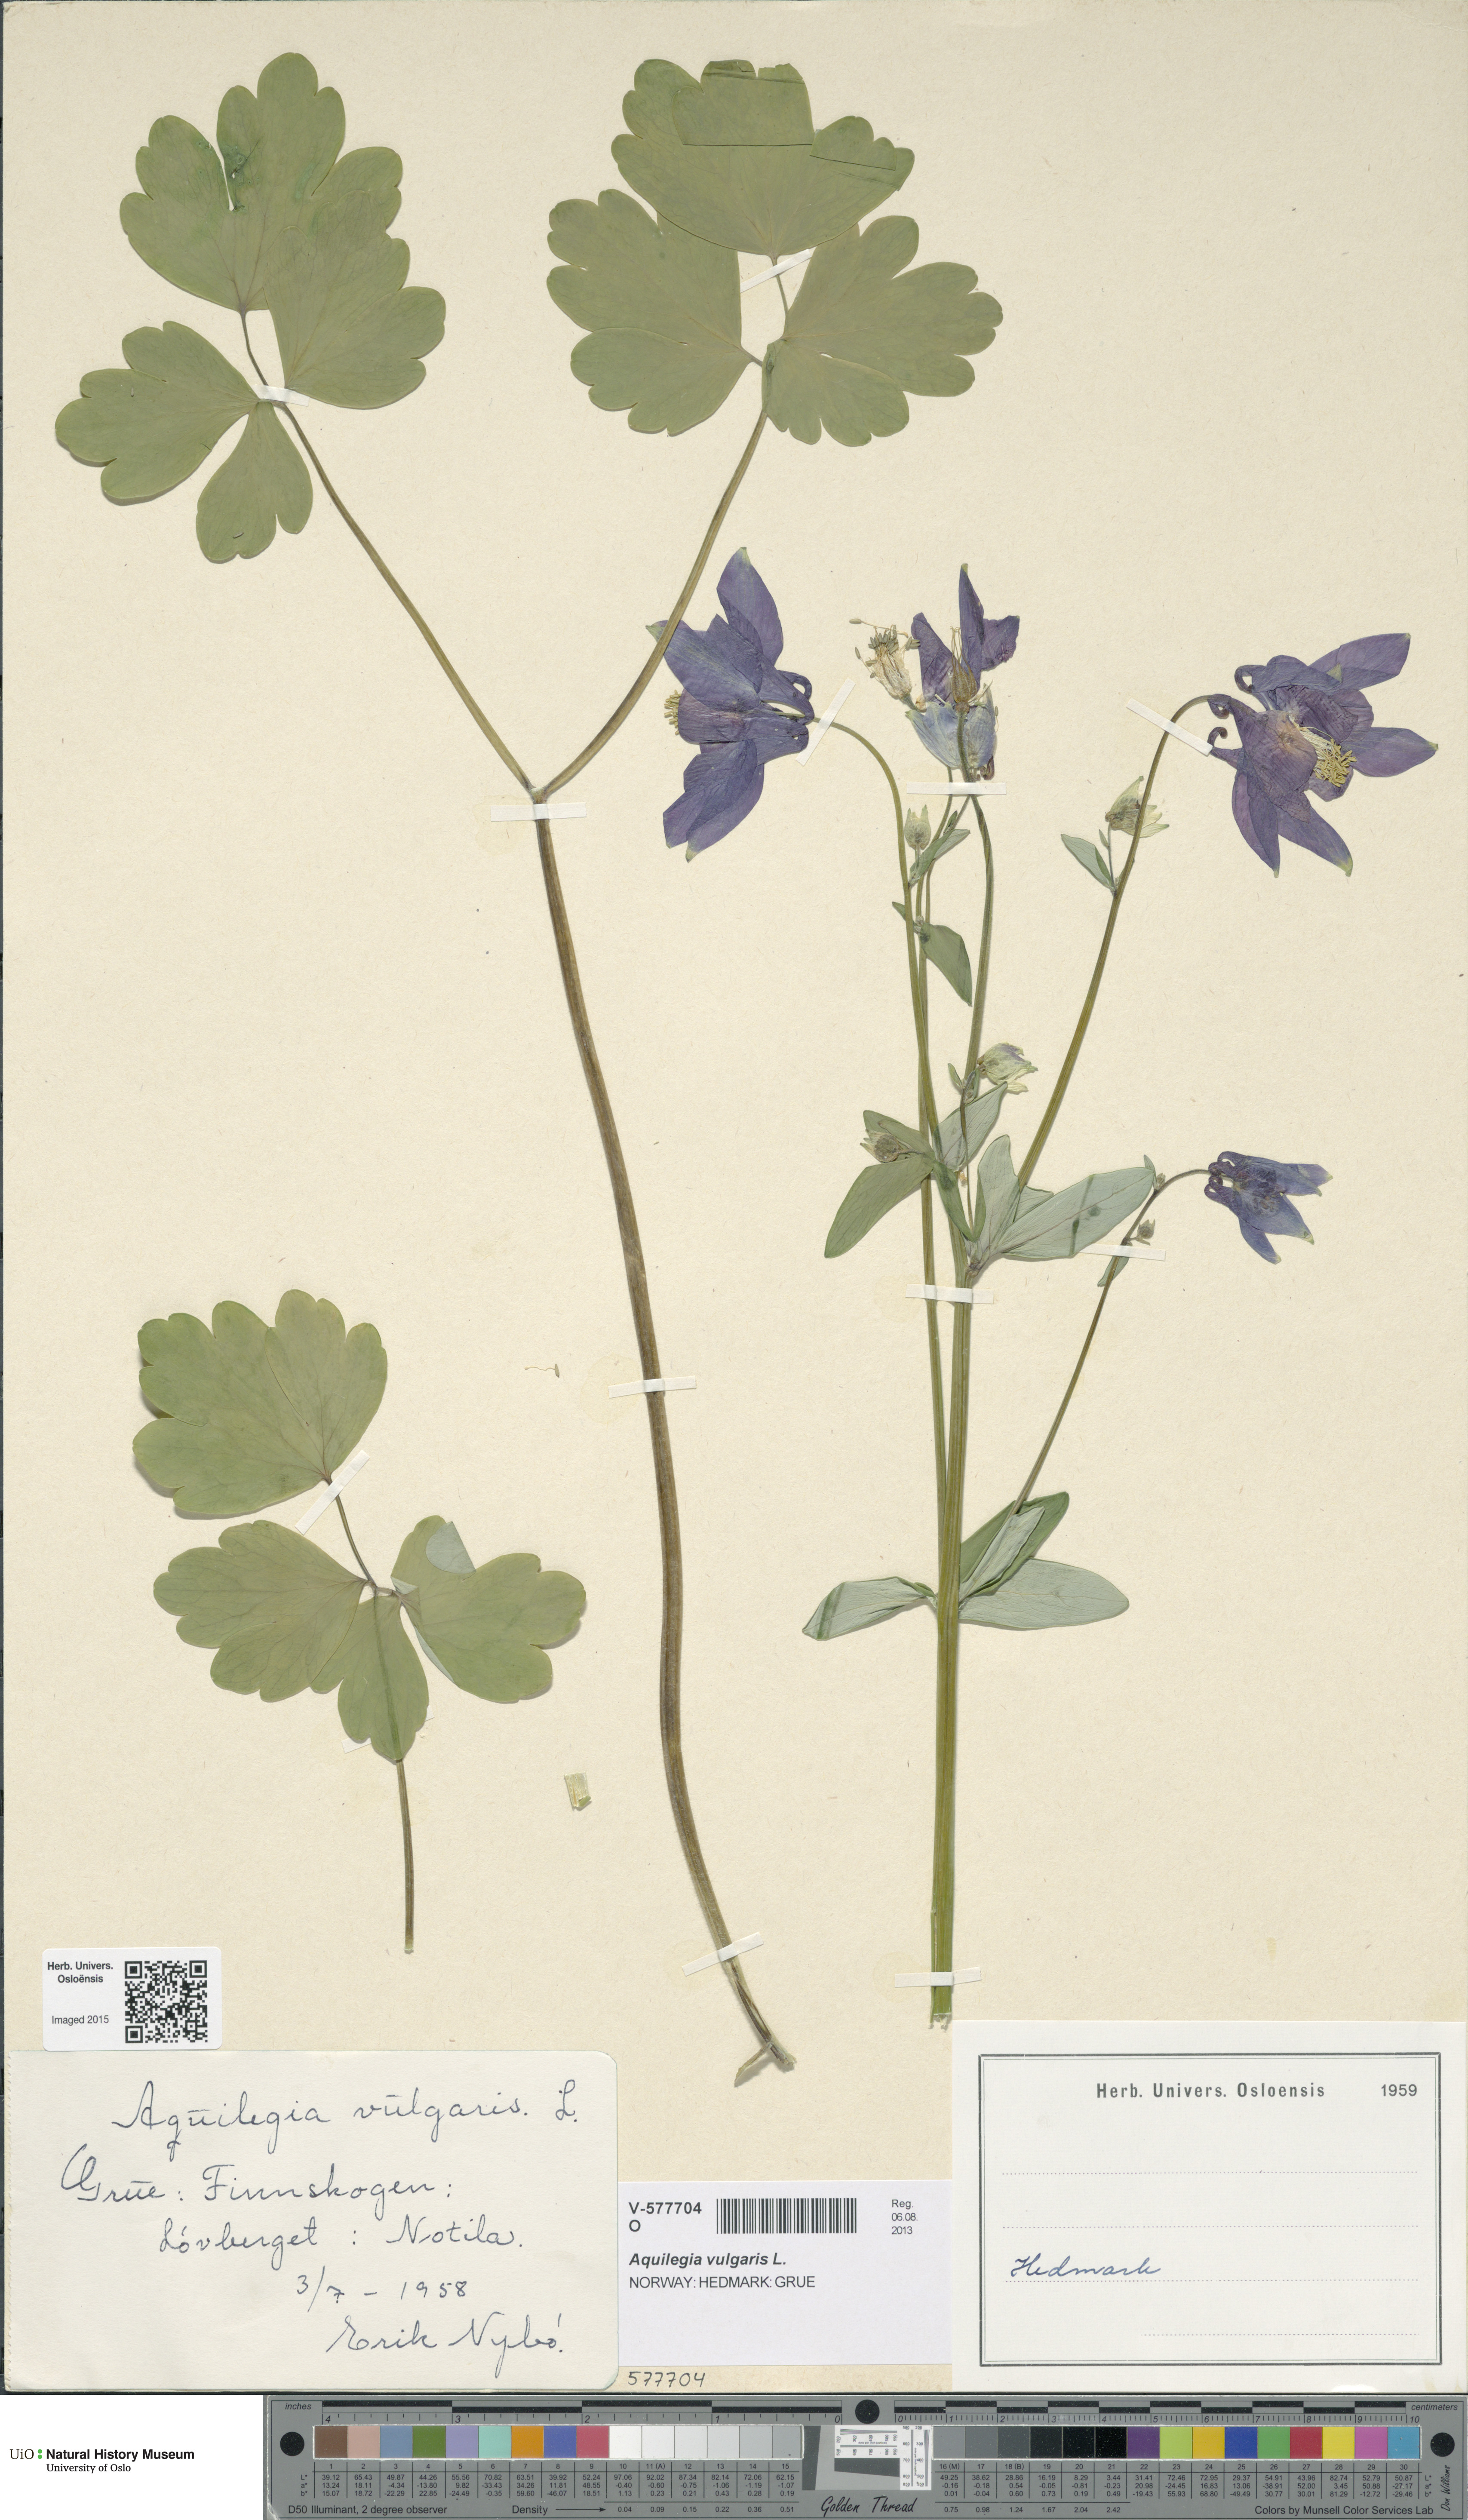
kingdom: Plantae
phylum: Tracheophyta
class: Magnoliopsida
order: Ranunculales
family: Ranunculaceae
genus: Aquilegia
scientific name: Aquilegia vulgaris
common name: Columbine
